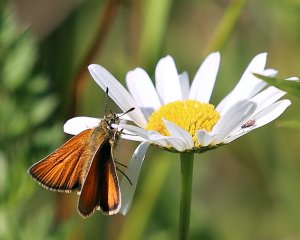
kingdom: Animalia
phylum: Arthropoda
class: Insecta
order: Lepidoptera
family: Hesperiidae
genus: Thymelicus
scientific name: Thymelicus lineola
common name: European Skipper
